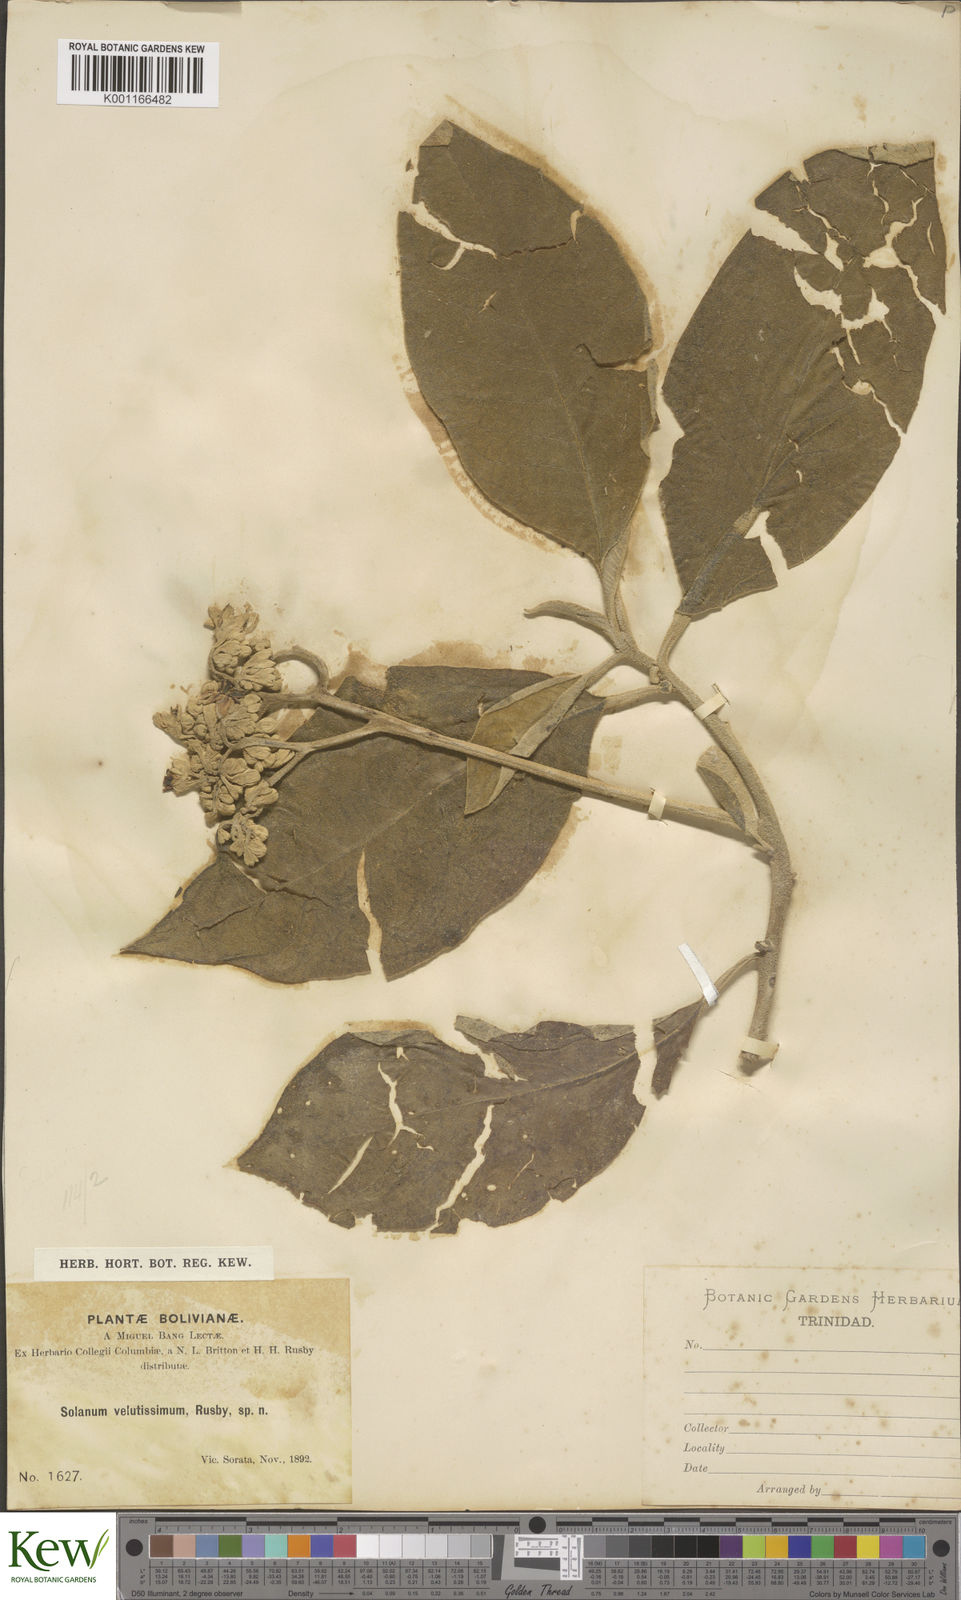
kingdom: Plantae
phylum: Tracheophyta
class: Magnoliopsida
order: Solanales
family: Solanaceae
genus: Solanum
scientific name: Solanum velutissimum
